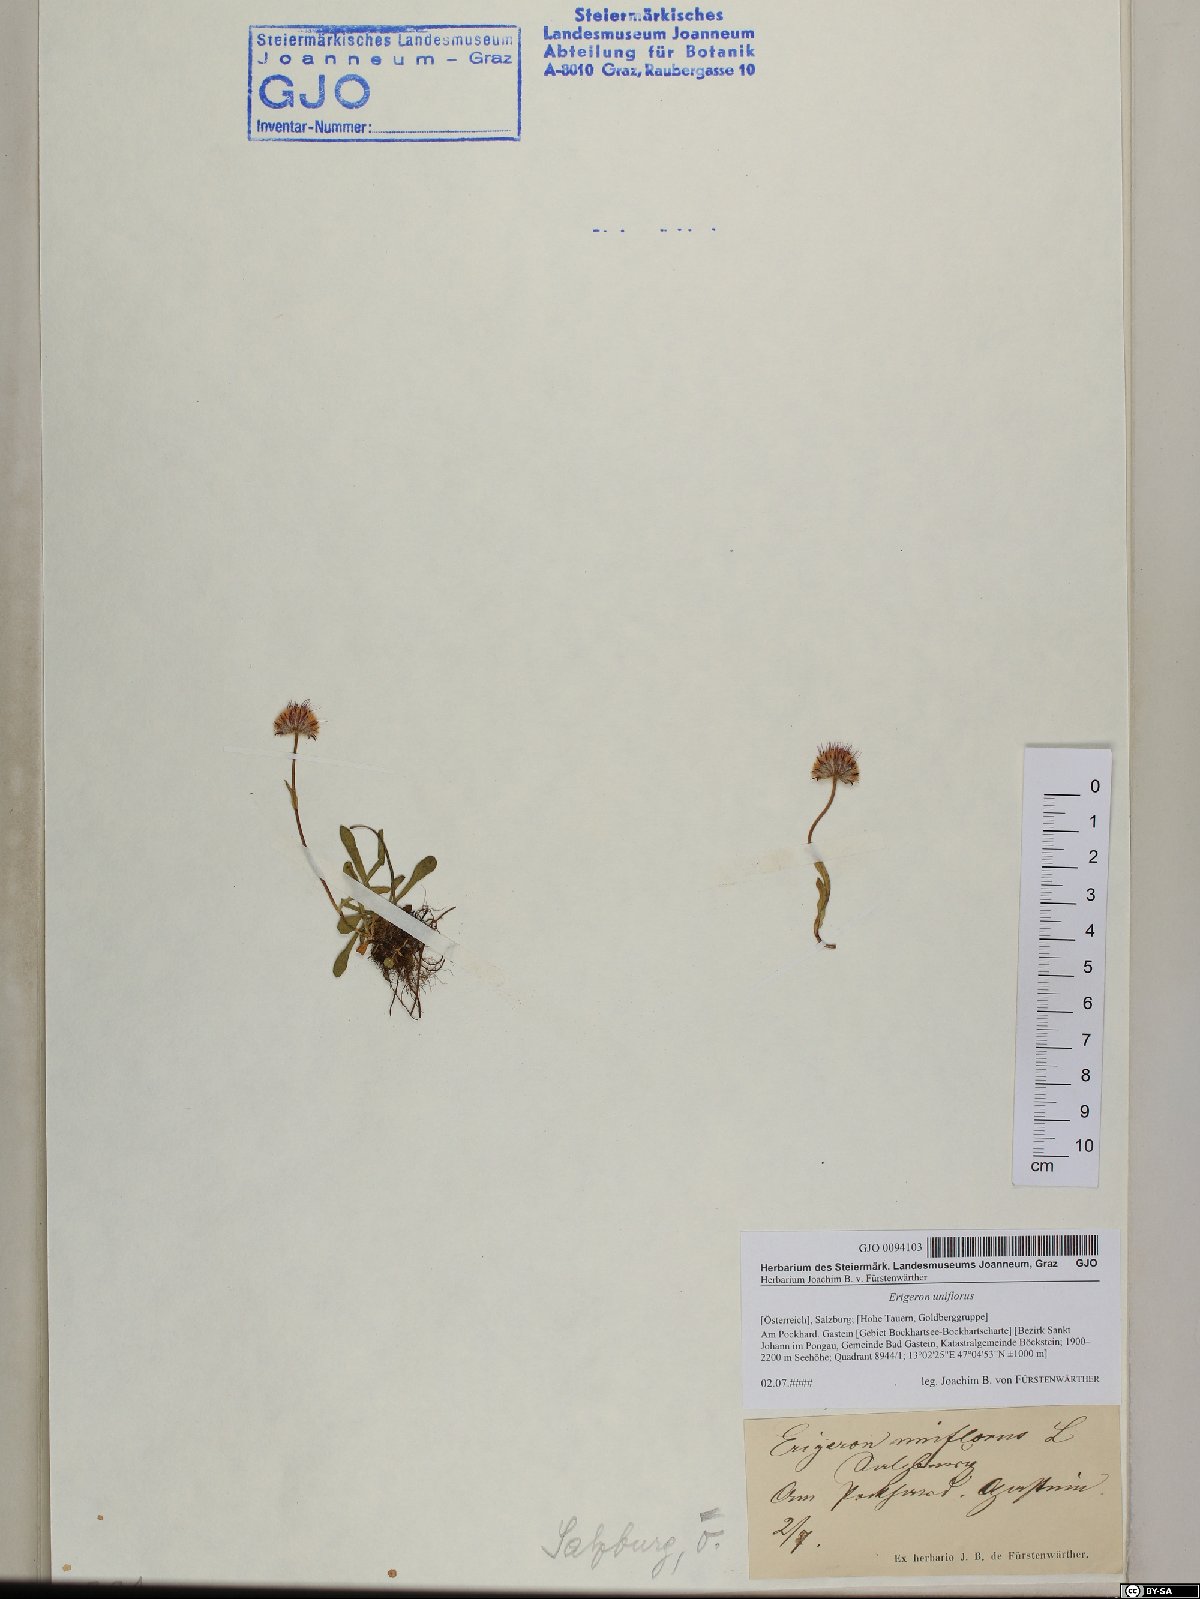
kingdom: Plantae
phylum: Tracheophyta
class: Magnoliopsida
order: Asterales
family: Asteraceae
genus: Erigeron
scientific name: Erigeron uniflorus
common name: Northern daisy
